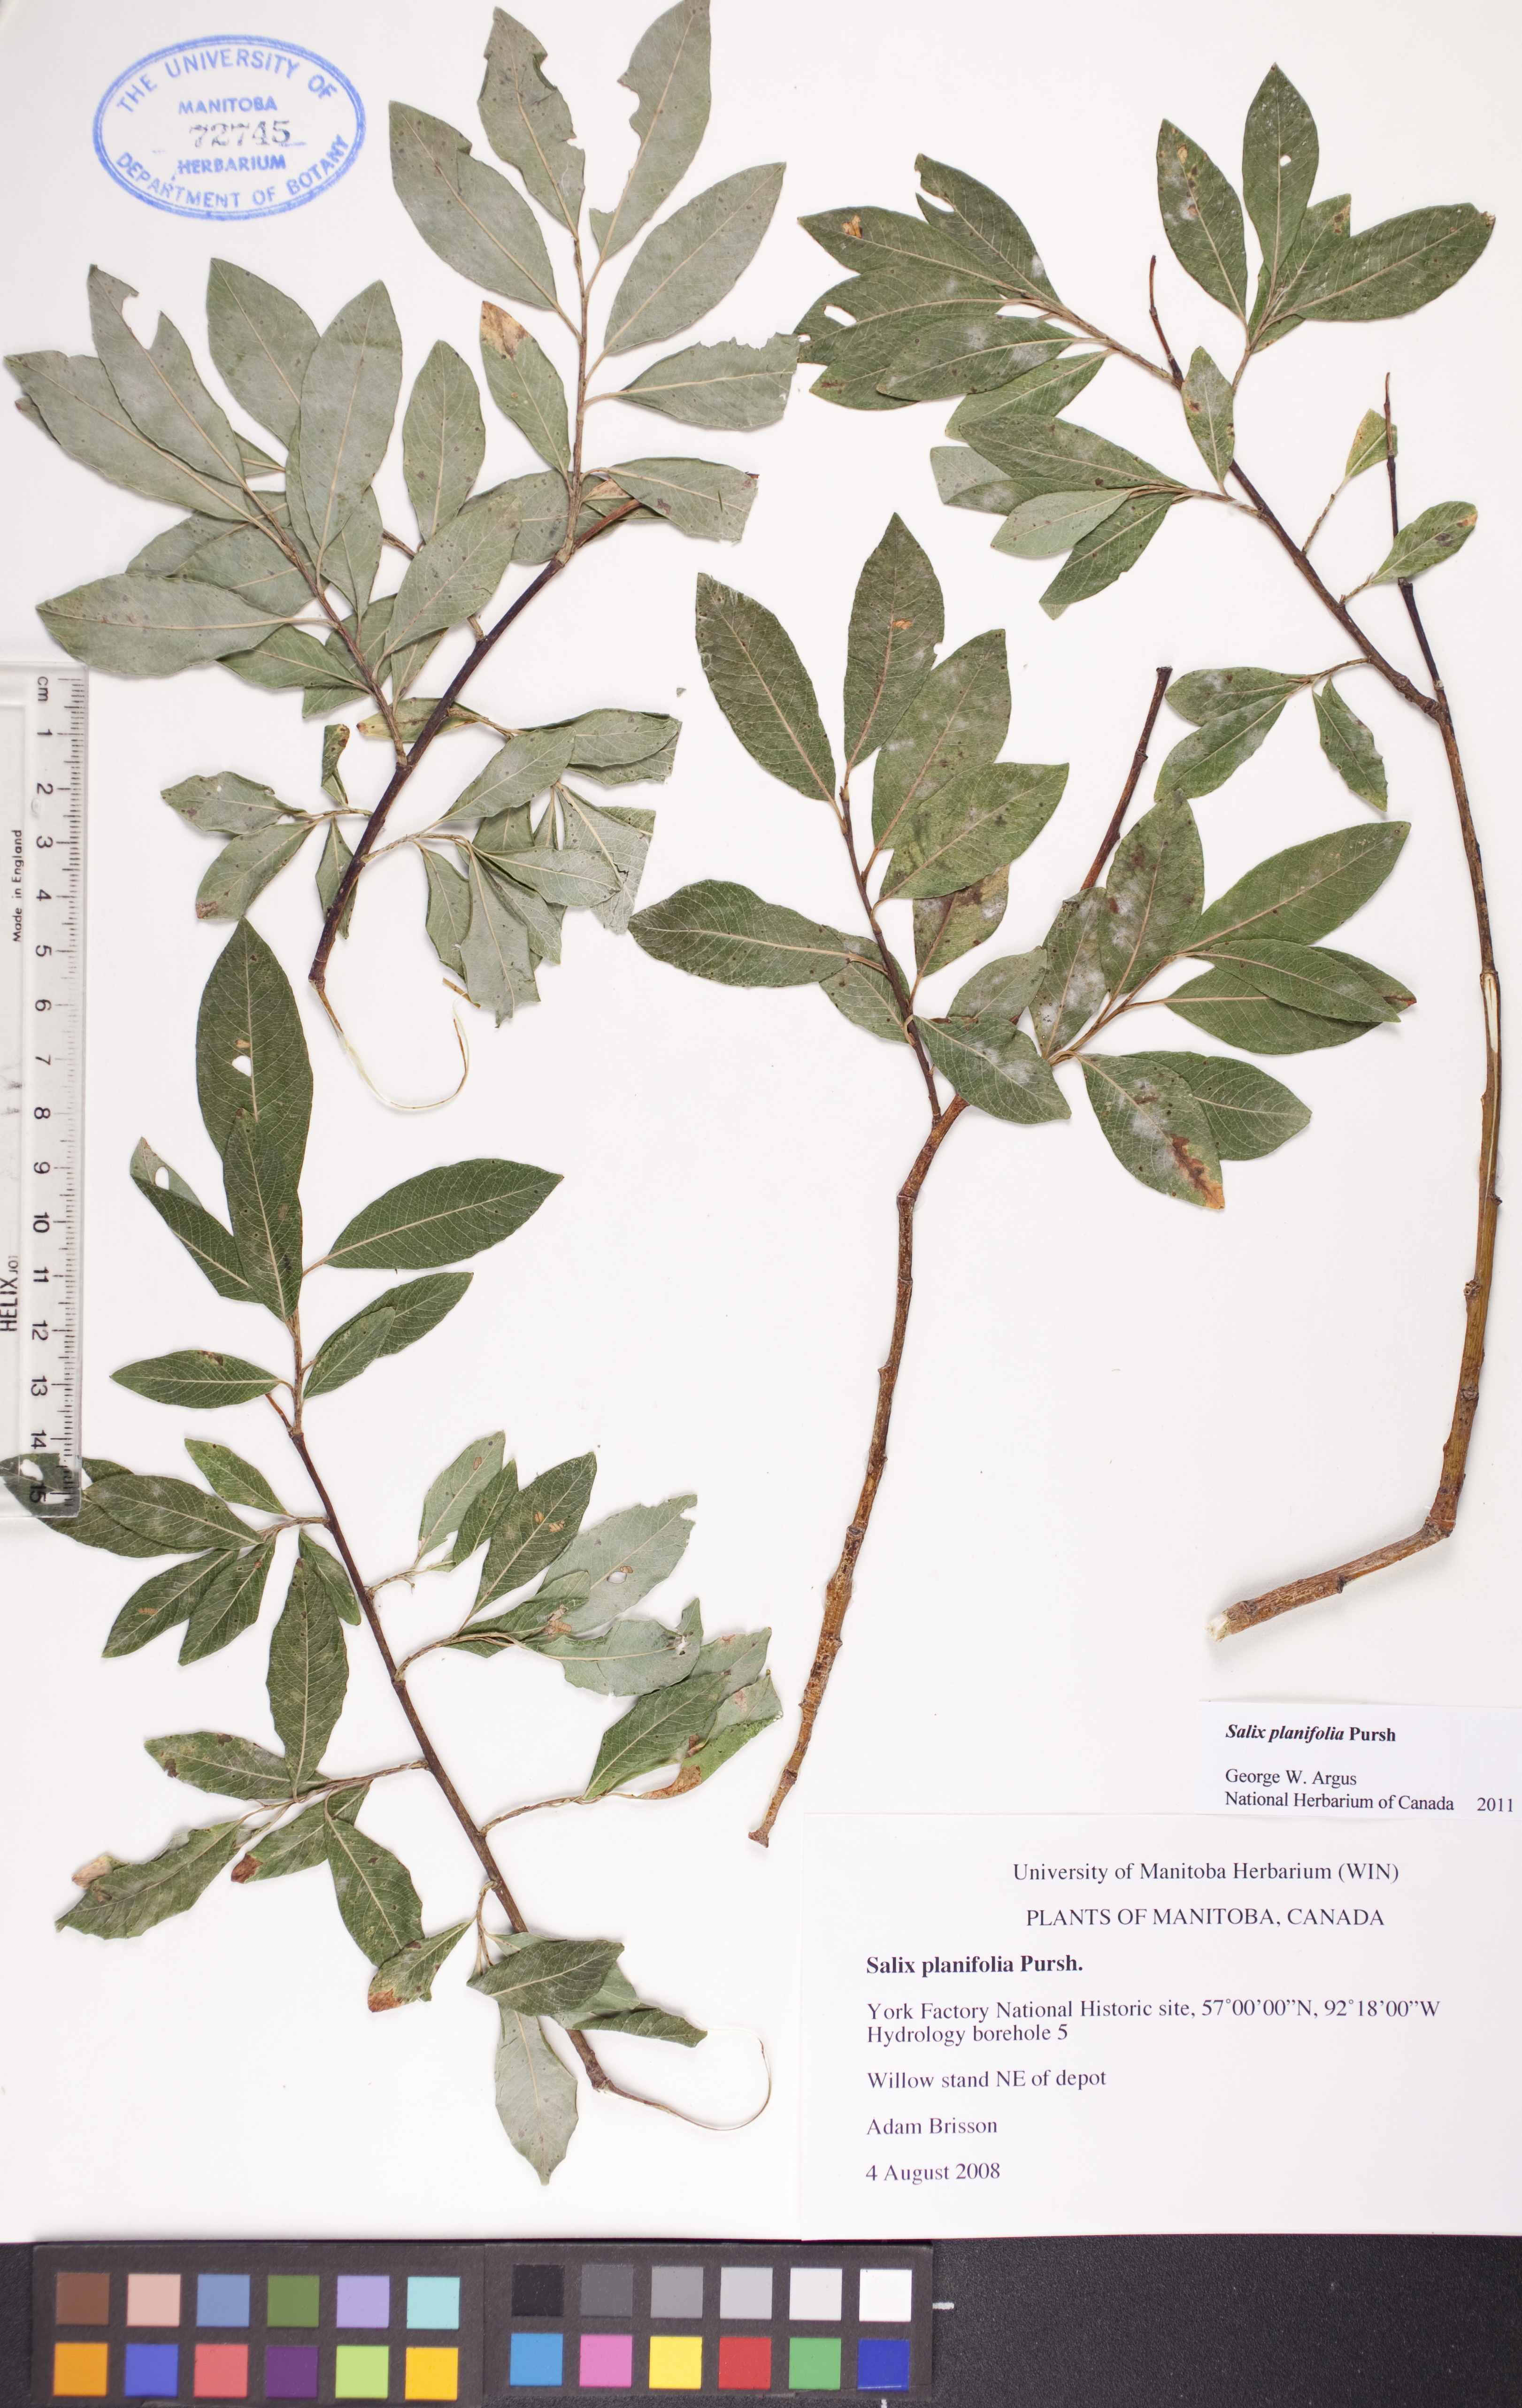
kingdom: Plantae
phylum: Tracheophyta
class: Magnoliopsida
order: Malpighiales
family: Salicaceae
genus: Salix
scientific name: Salix planifolia
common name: Mountain willow
